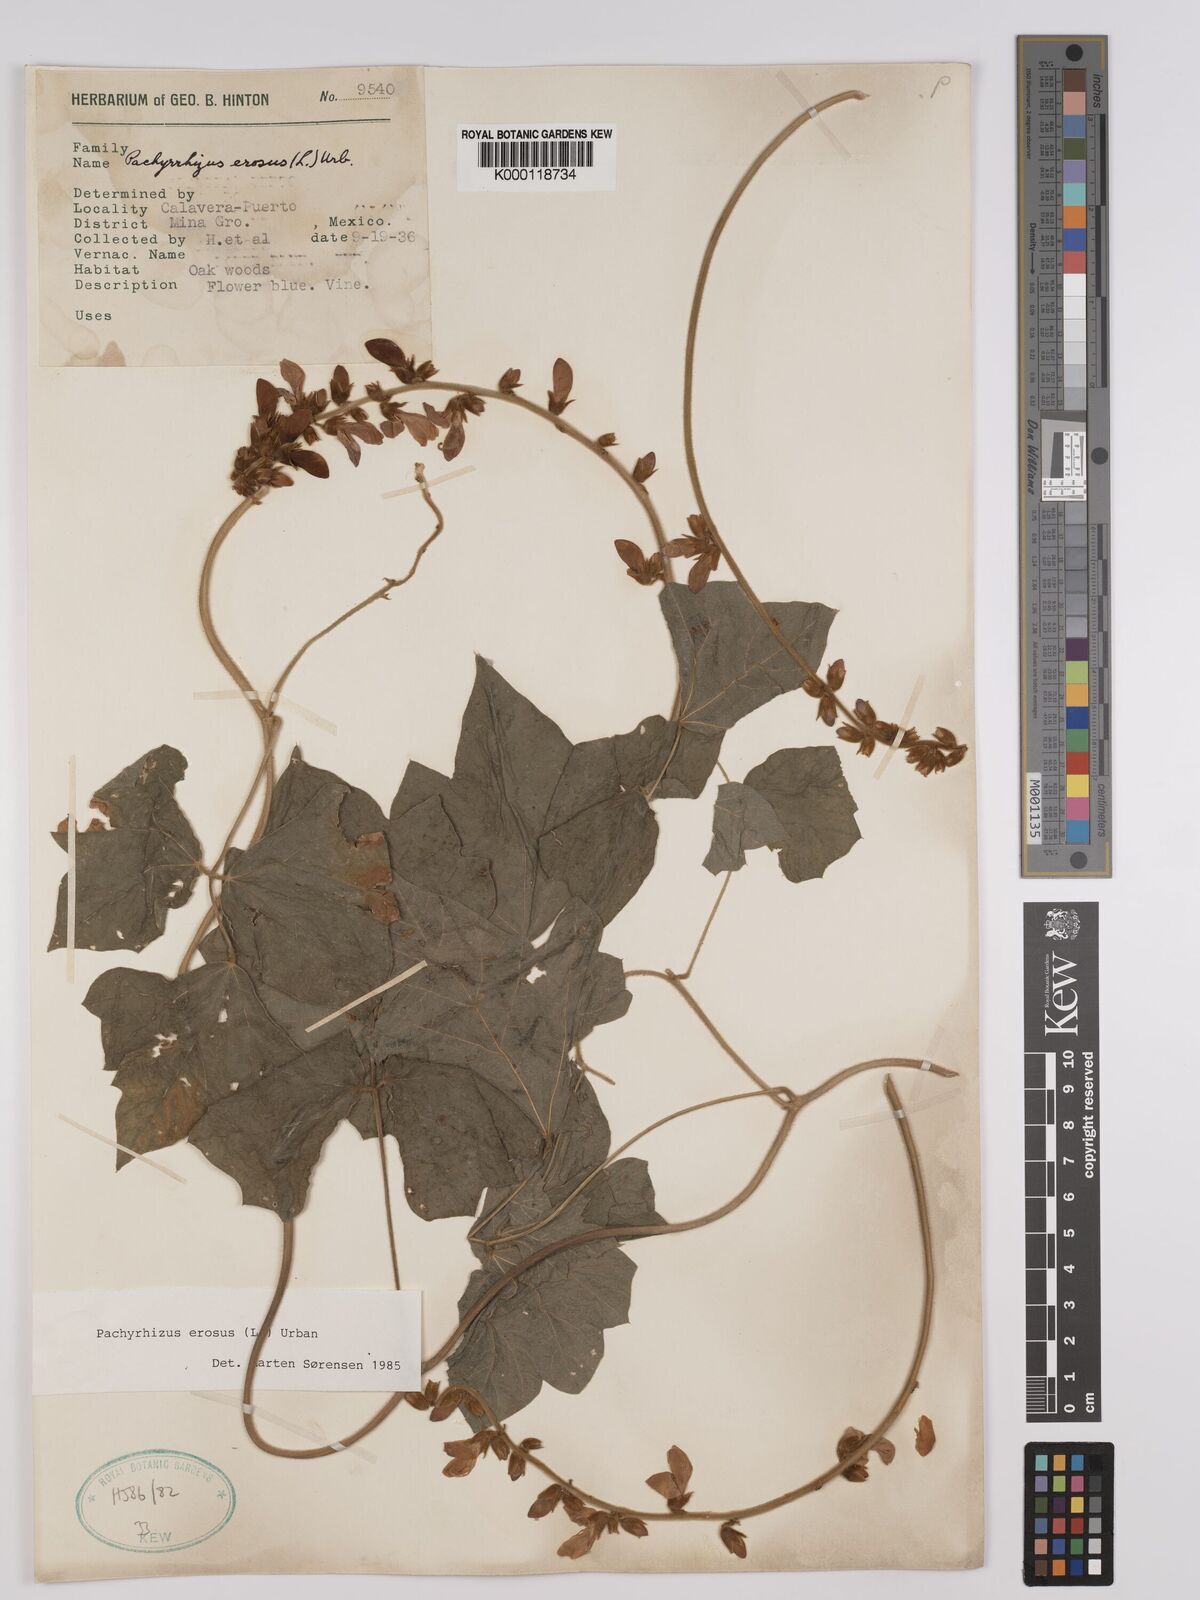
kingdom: Plantae
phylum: Tracheophyta
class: Magnoliopsida
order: Fabales
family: Fabaceae
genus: Pachyrhizus
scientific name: Pachyrhizus erosus
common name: Yam bean
